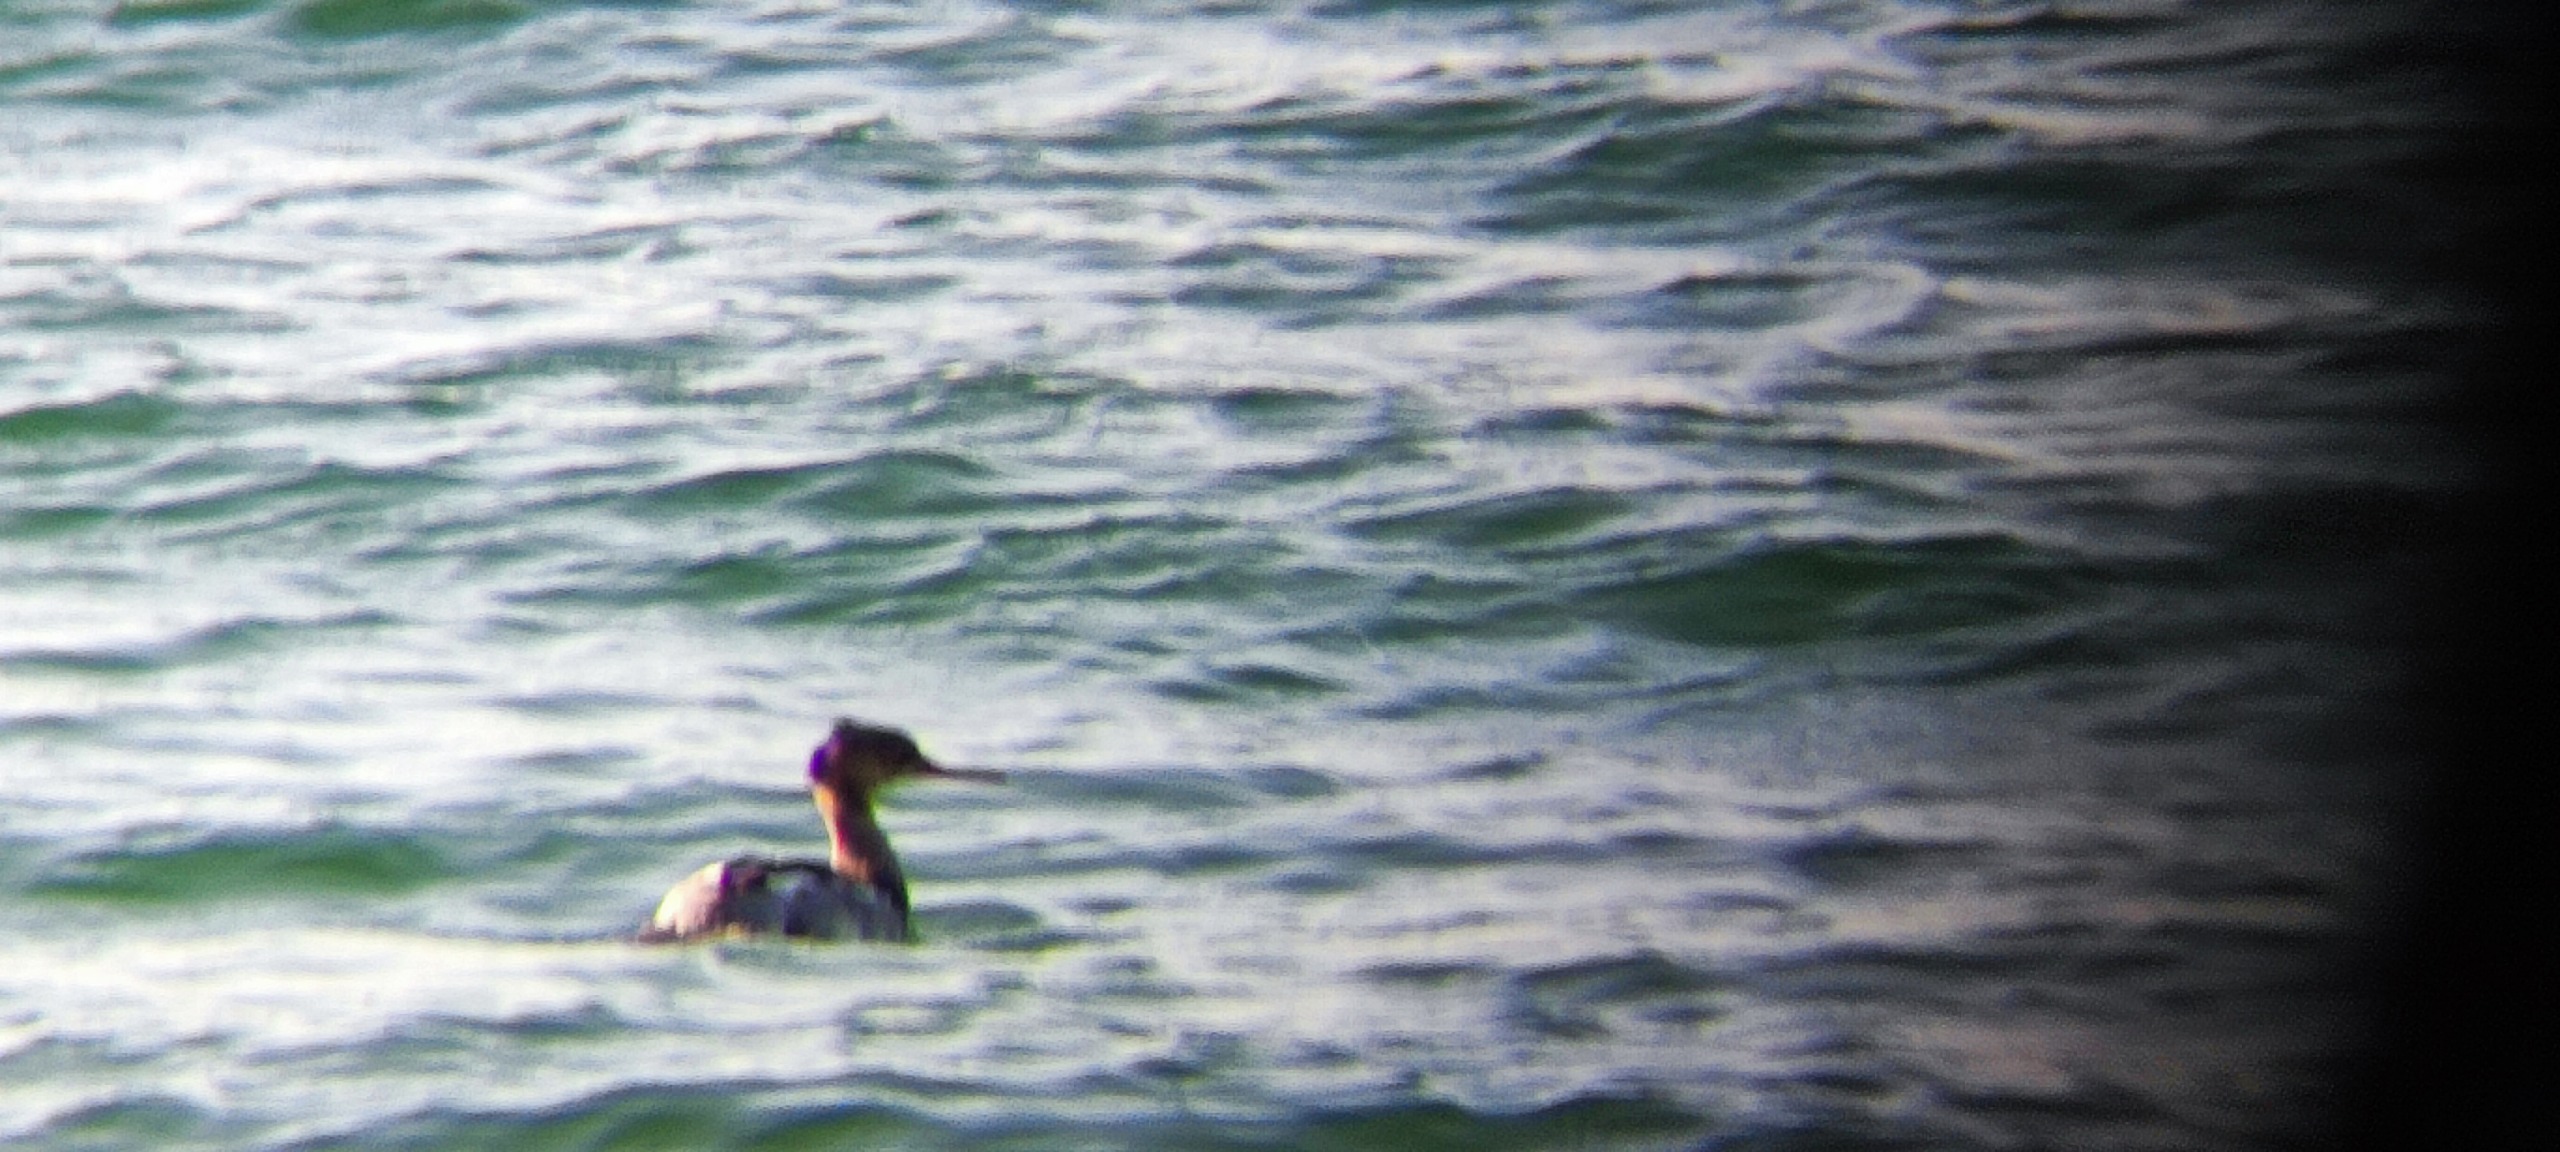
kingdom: Animalia
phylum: Chordata
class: Aves
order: Anseriformes
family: Anatidae
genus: Mergus
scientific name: Mergus serrator
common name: Toppet skallesluger
